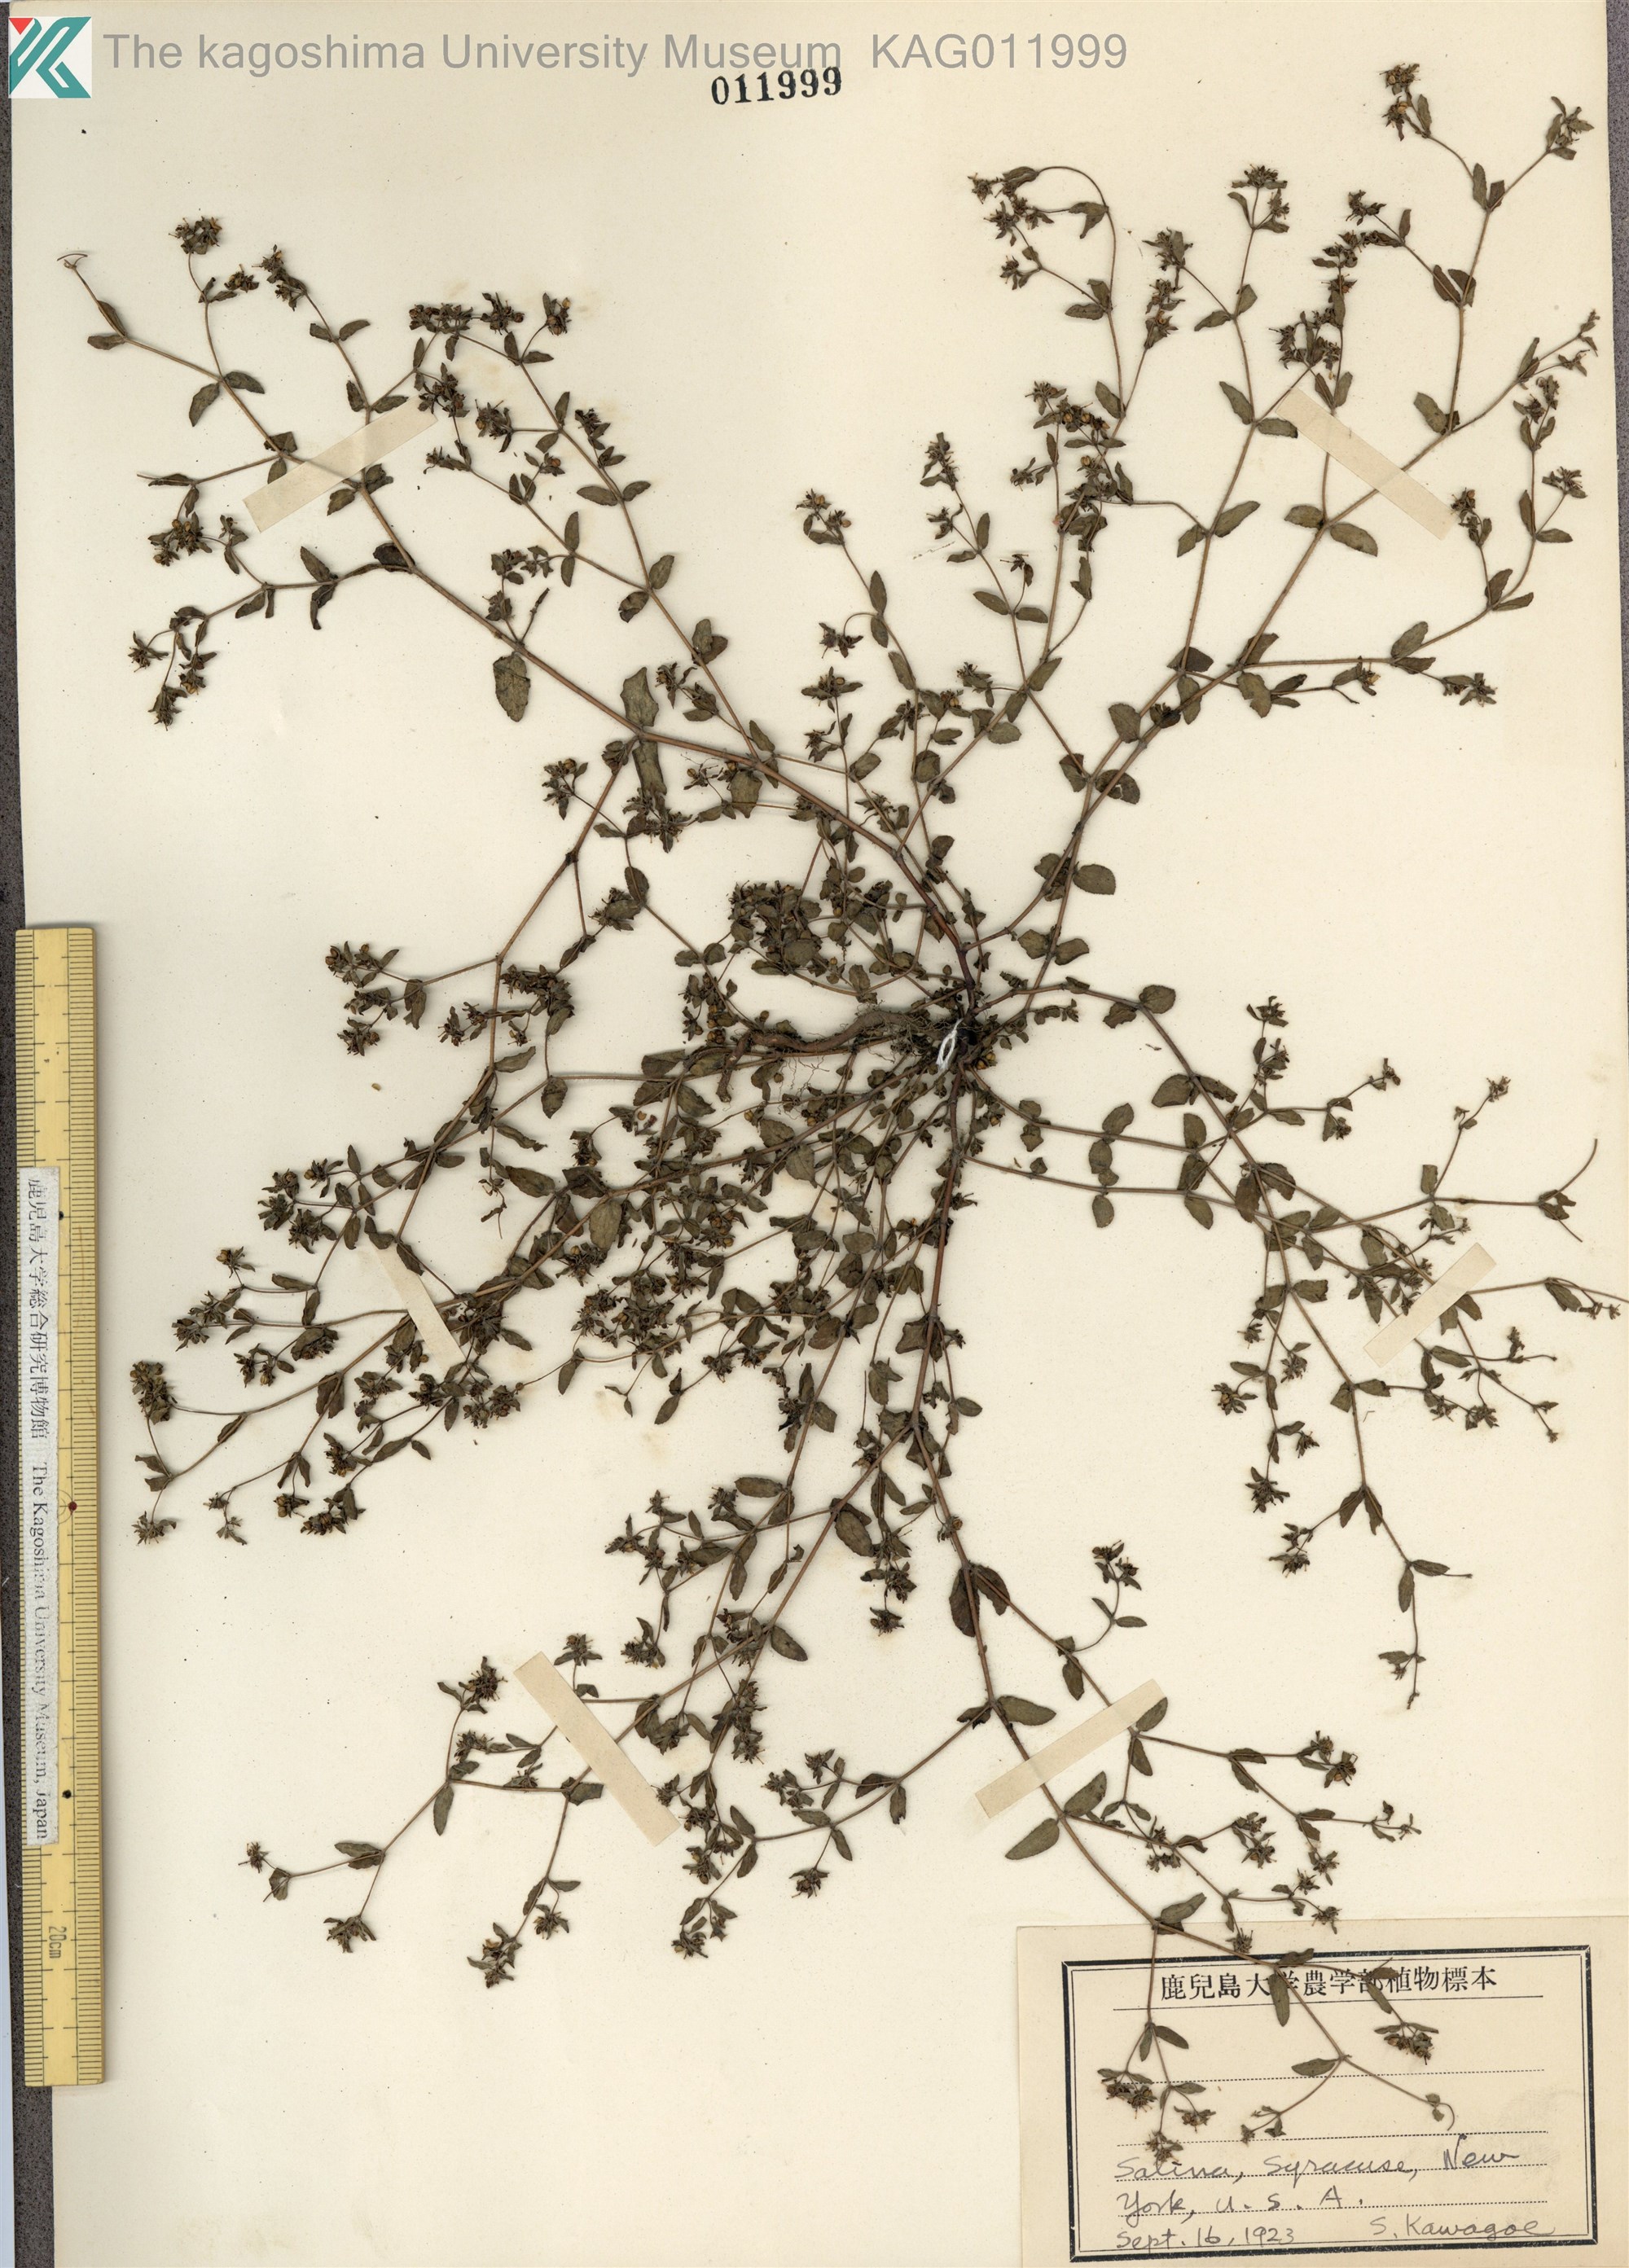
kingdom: Plantae
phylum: Tracheophyta
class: Magnoliopsida
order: Malpighiales
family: Euphorbiaceae
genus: Euphorbia
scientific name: Euphorbia hirsuta
